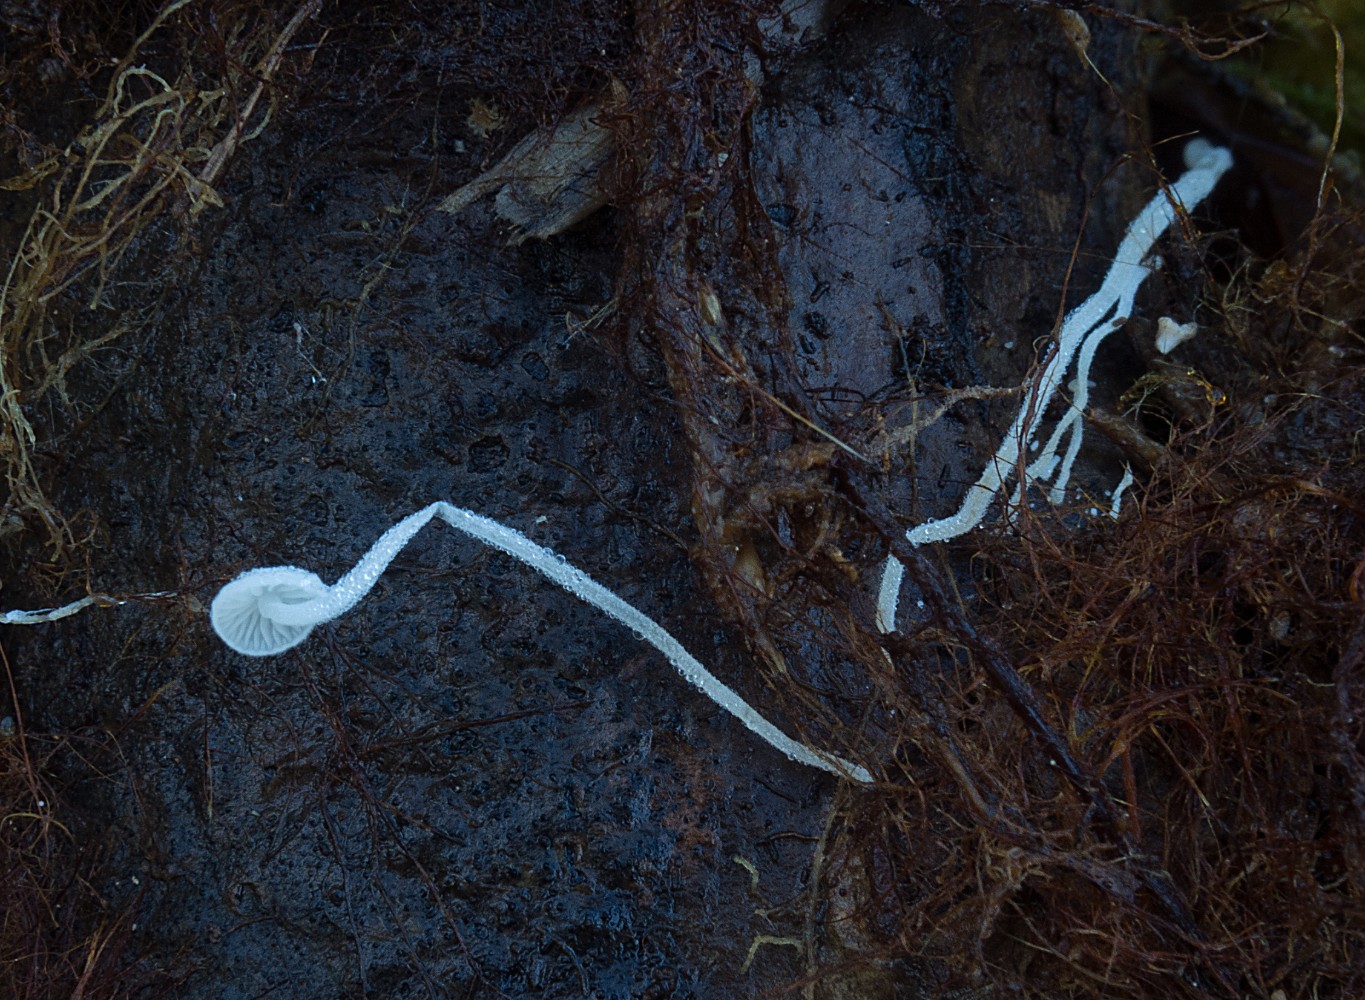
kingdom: Fungi
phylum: Basidiomycota
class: Agaricomycetes
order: Agaricales
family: Mycenaceae
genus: Hemimycena
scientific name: Hemimycena tortuosa
